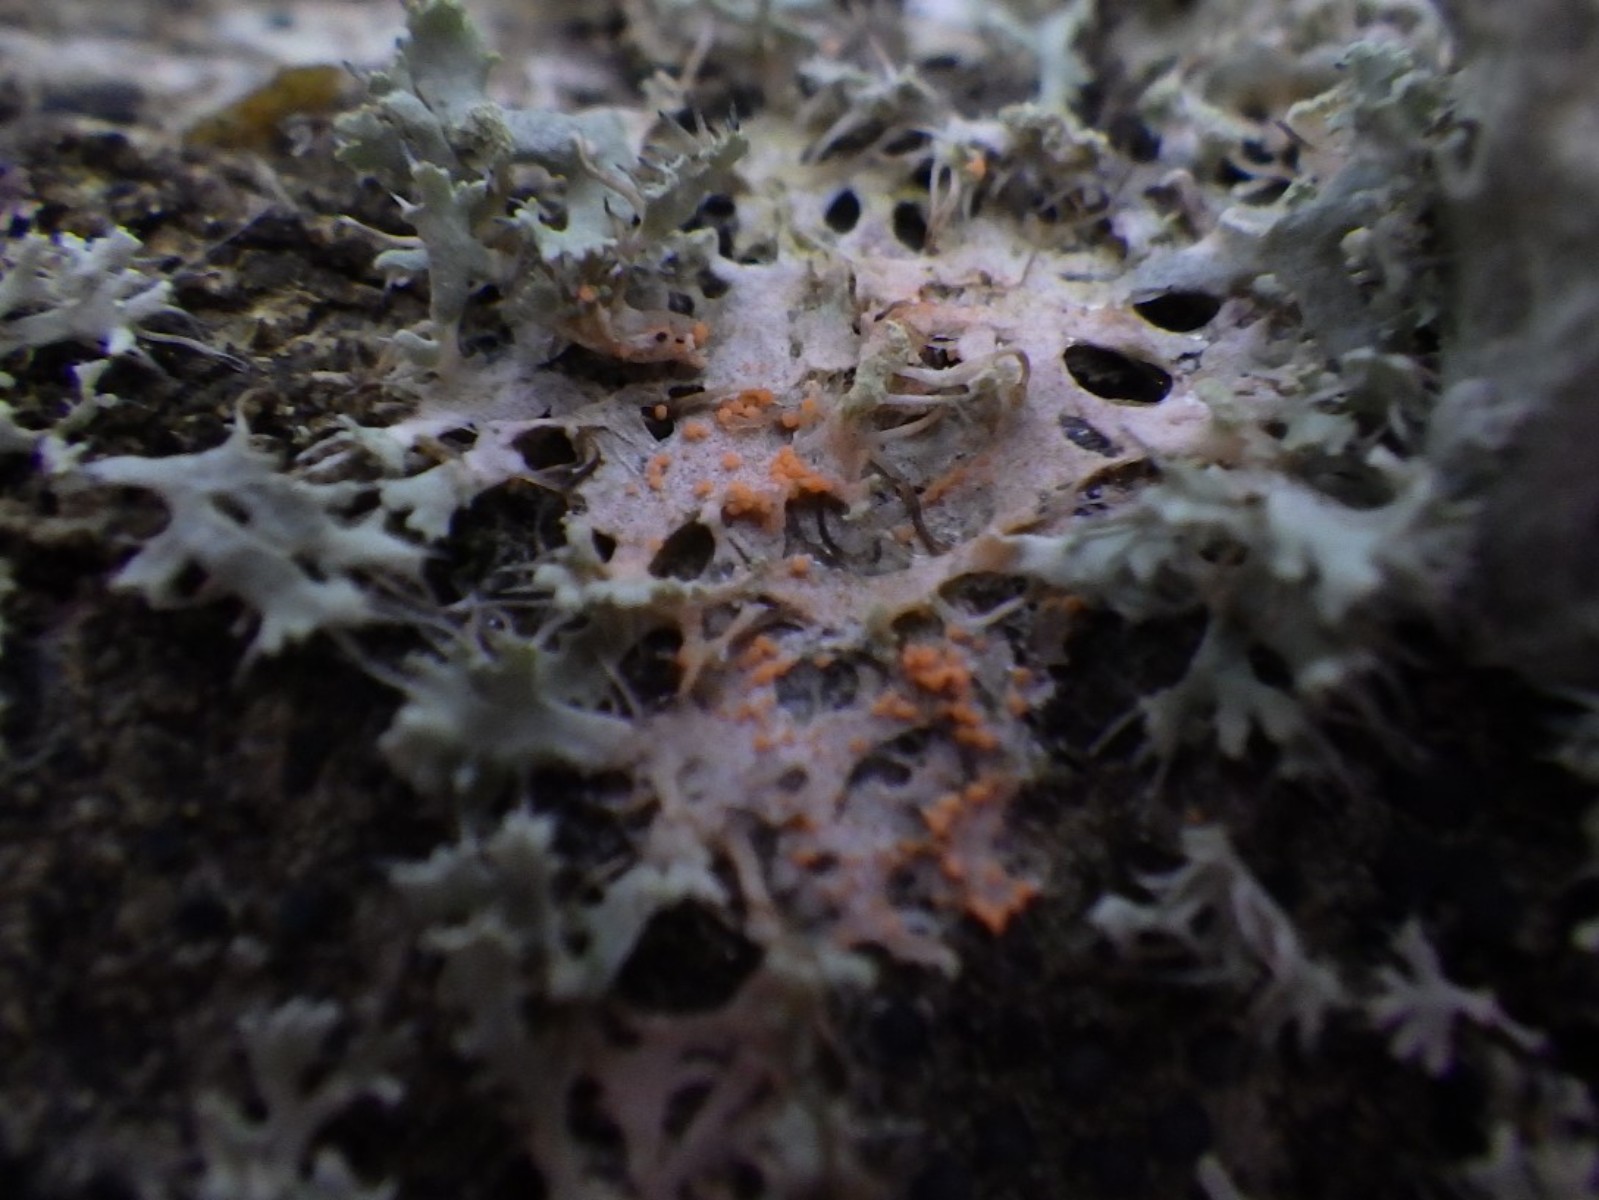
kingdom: Fungi
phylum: Basidiomycota
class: Agaricomycetes
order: Corticiales
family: Corticiaceae
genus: Erythricium
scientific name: Erythricium aurantiacum
